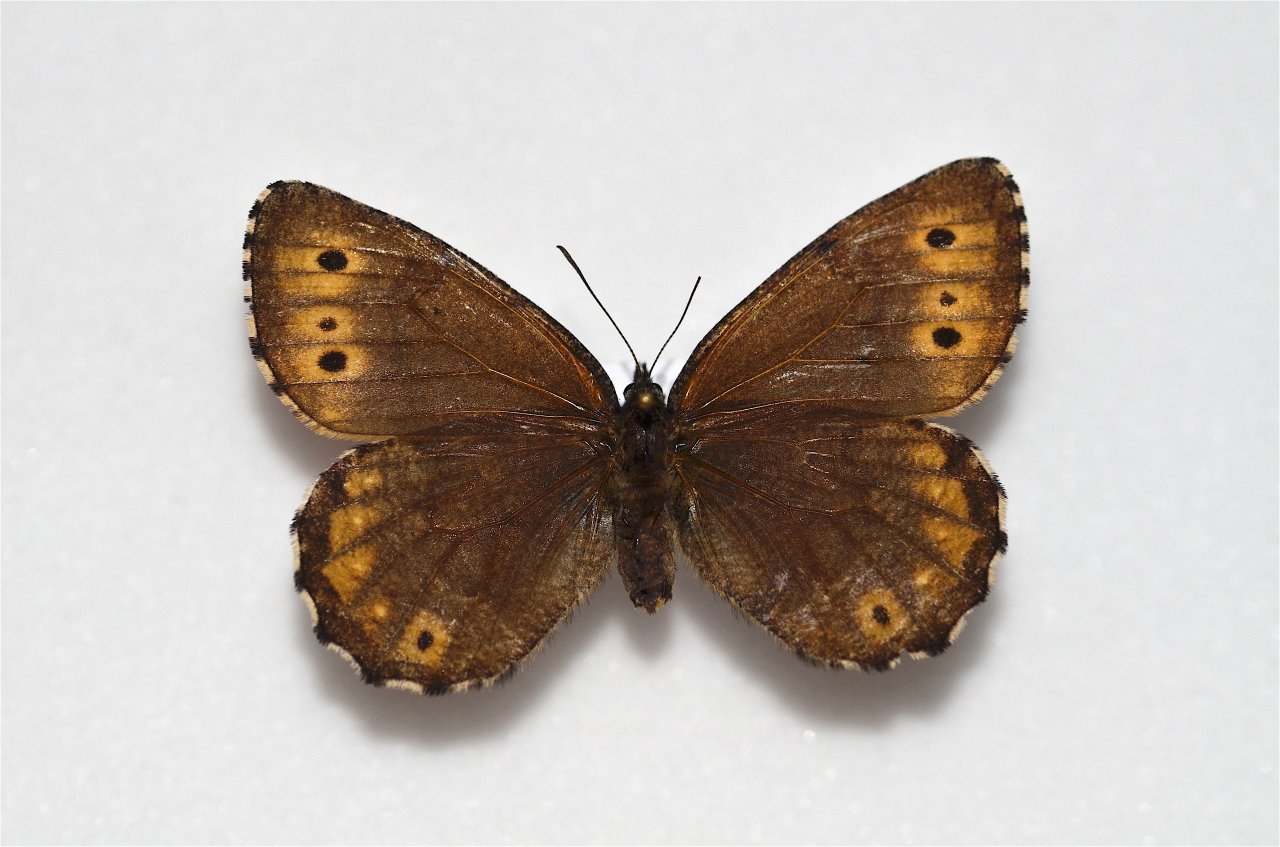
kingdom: Animalia
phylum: Arthropoda
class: Insecta
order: Lepidoptera
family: Nymphalidae
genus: Oeneis
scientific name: Oeneis jutta
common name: Jutta Arctic
